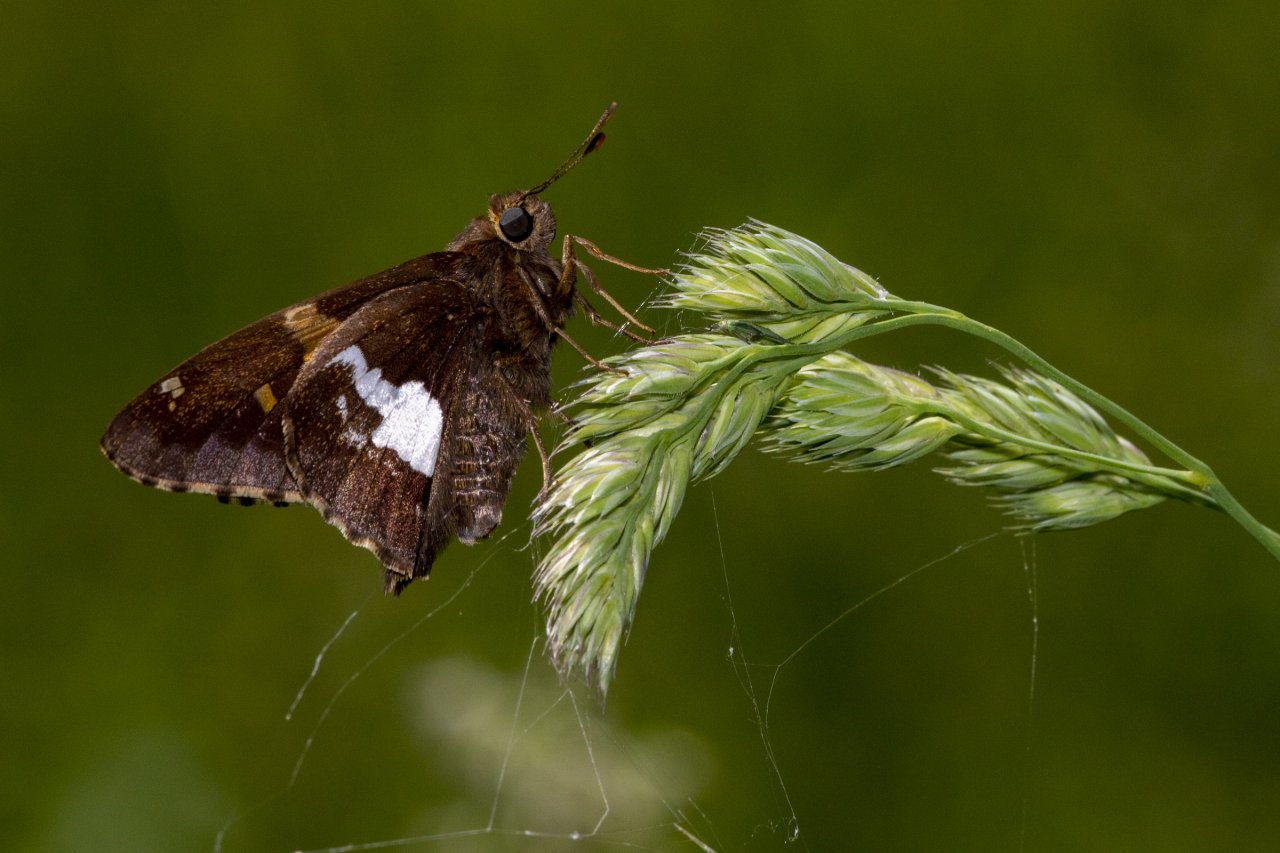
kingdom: Animalia
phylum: Arthropoda
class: Insecta
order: Lepidoptera
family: Hesperiidae
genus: Epargyreus
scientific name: Epargyreus clarus
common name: Silver-spotted Skipper
